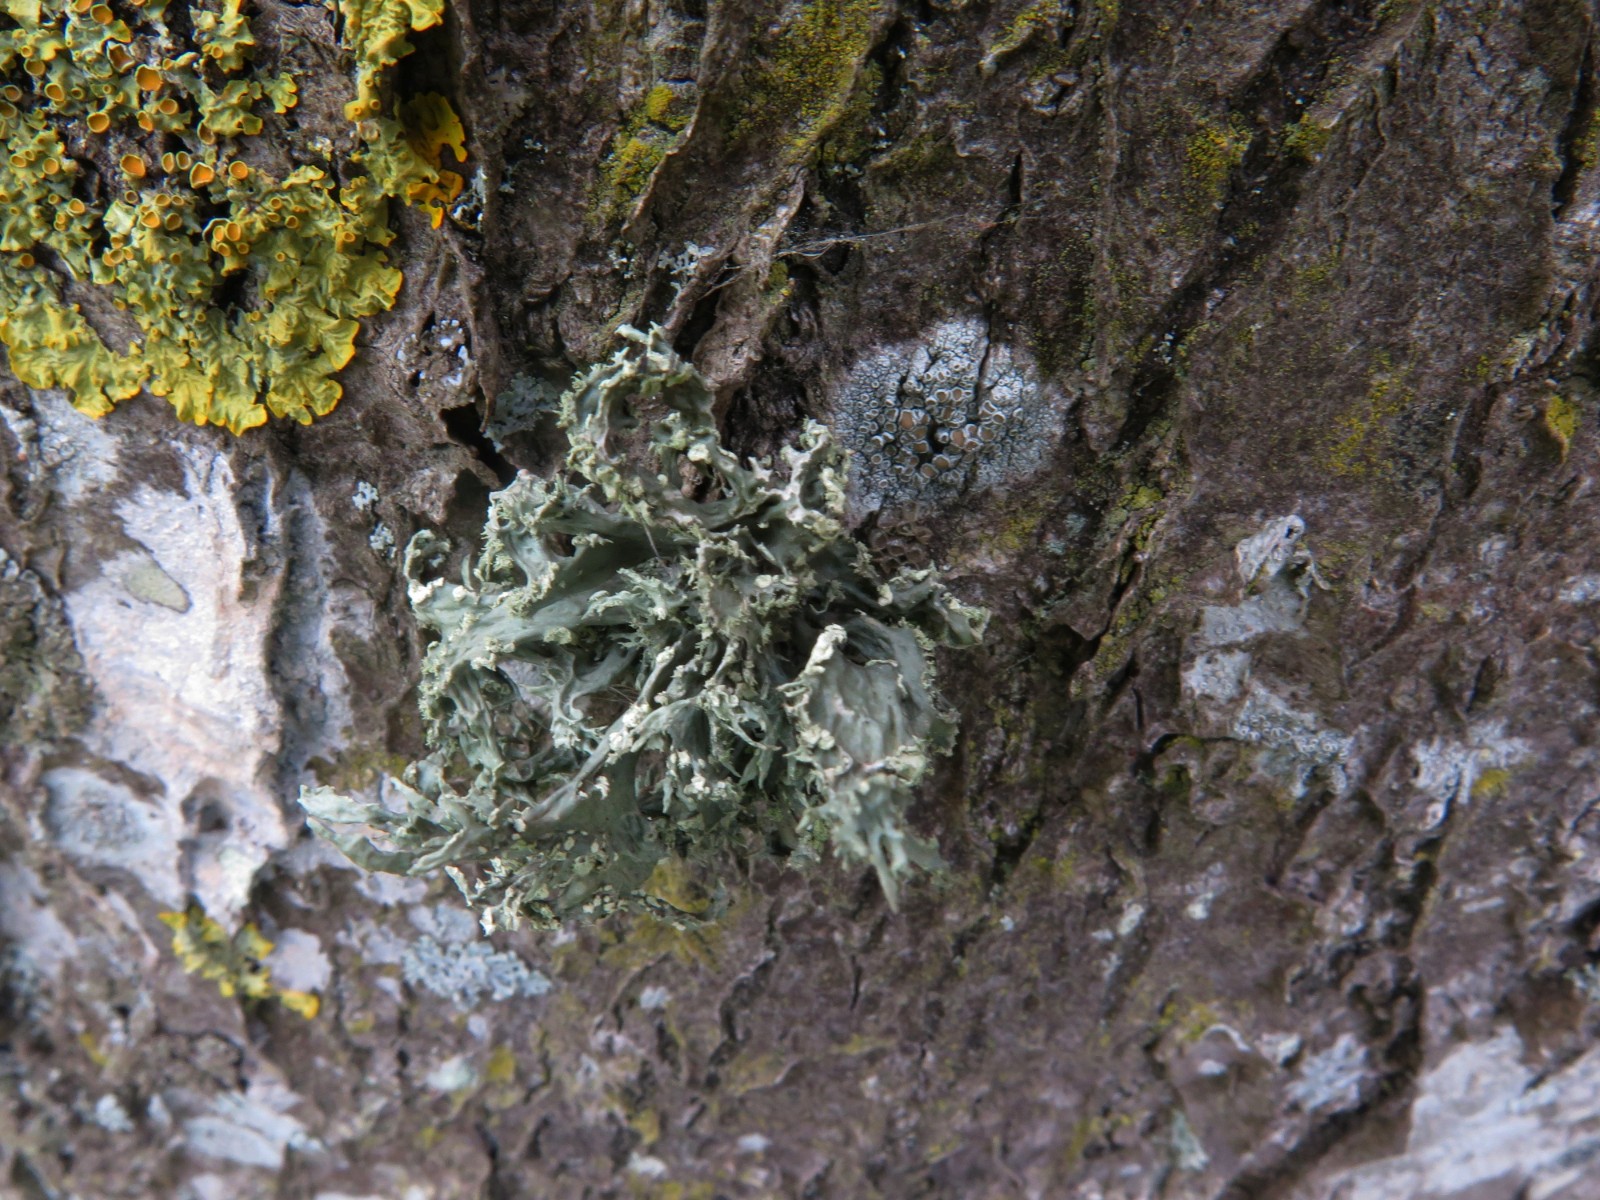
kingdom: Fungi
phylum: Ascomycota
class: Lecanoromycetes
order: Lecanorales
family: Ramalinaceae
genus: Ramalina
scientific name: Ramalina farinacea
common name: melet grenlav
